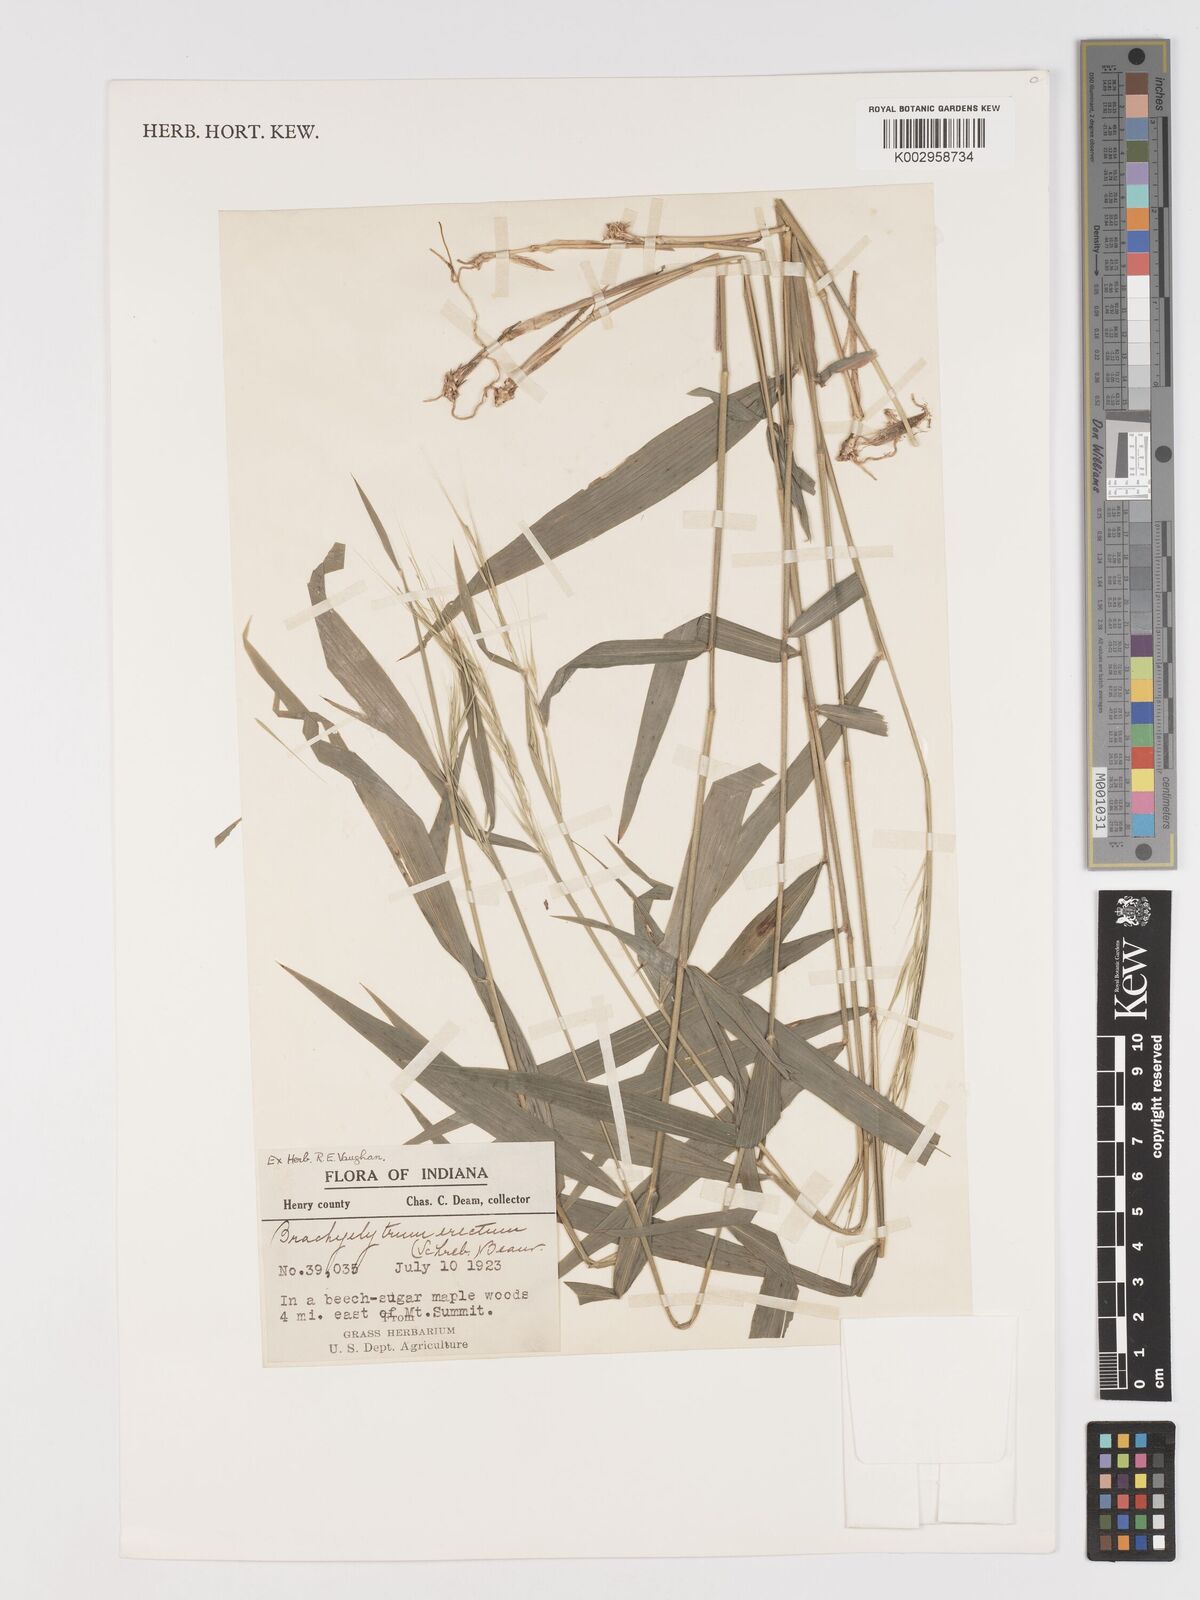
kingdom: Plantae
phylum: Tracheophyta
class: Liliopsida
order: Poales
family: Poaceae
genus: Brachyelytrum
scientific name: Brachyelytrum erectum
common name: Bearded shorthusk
